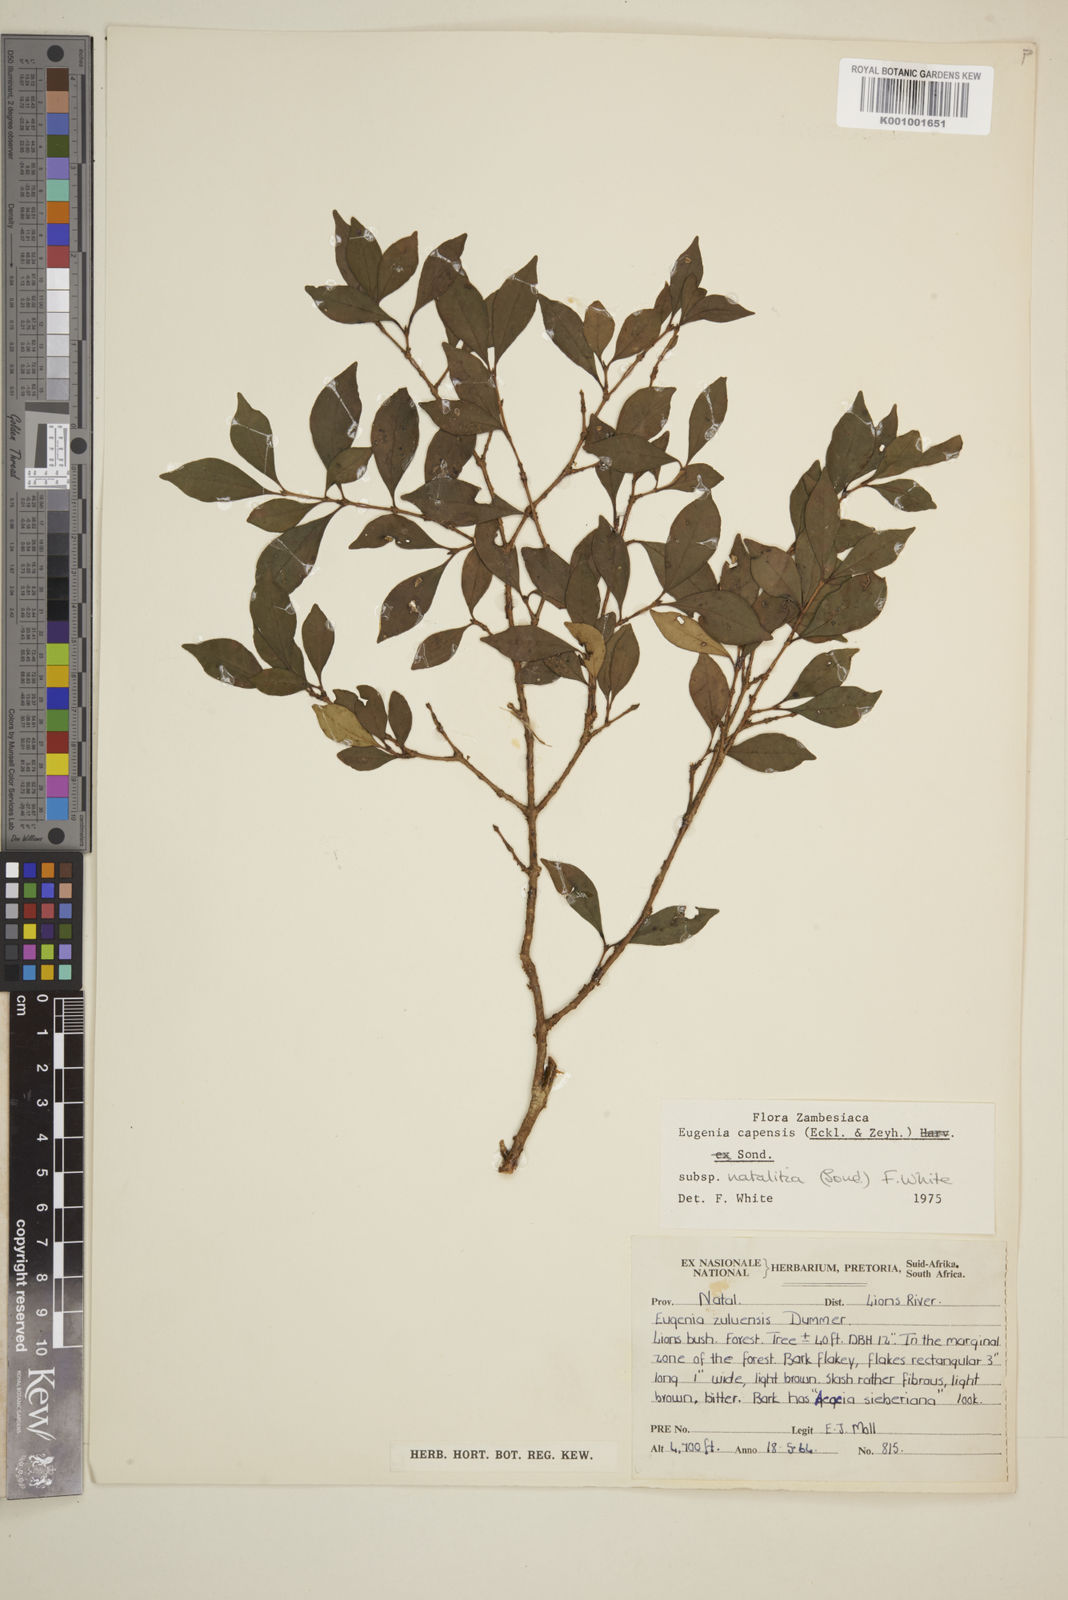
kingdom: Plantae
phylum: Tracheophyta
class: Magnoliopsida
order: Myrtales
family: Myrtaceae
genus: Eugenia
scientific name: Eugenia natalitia
